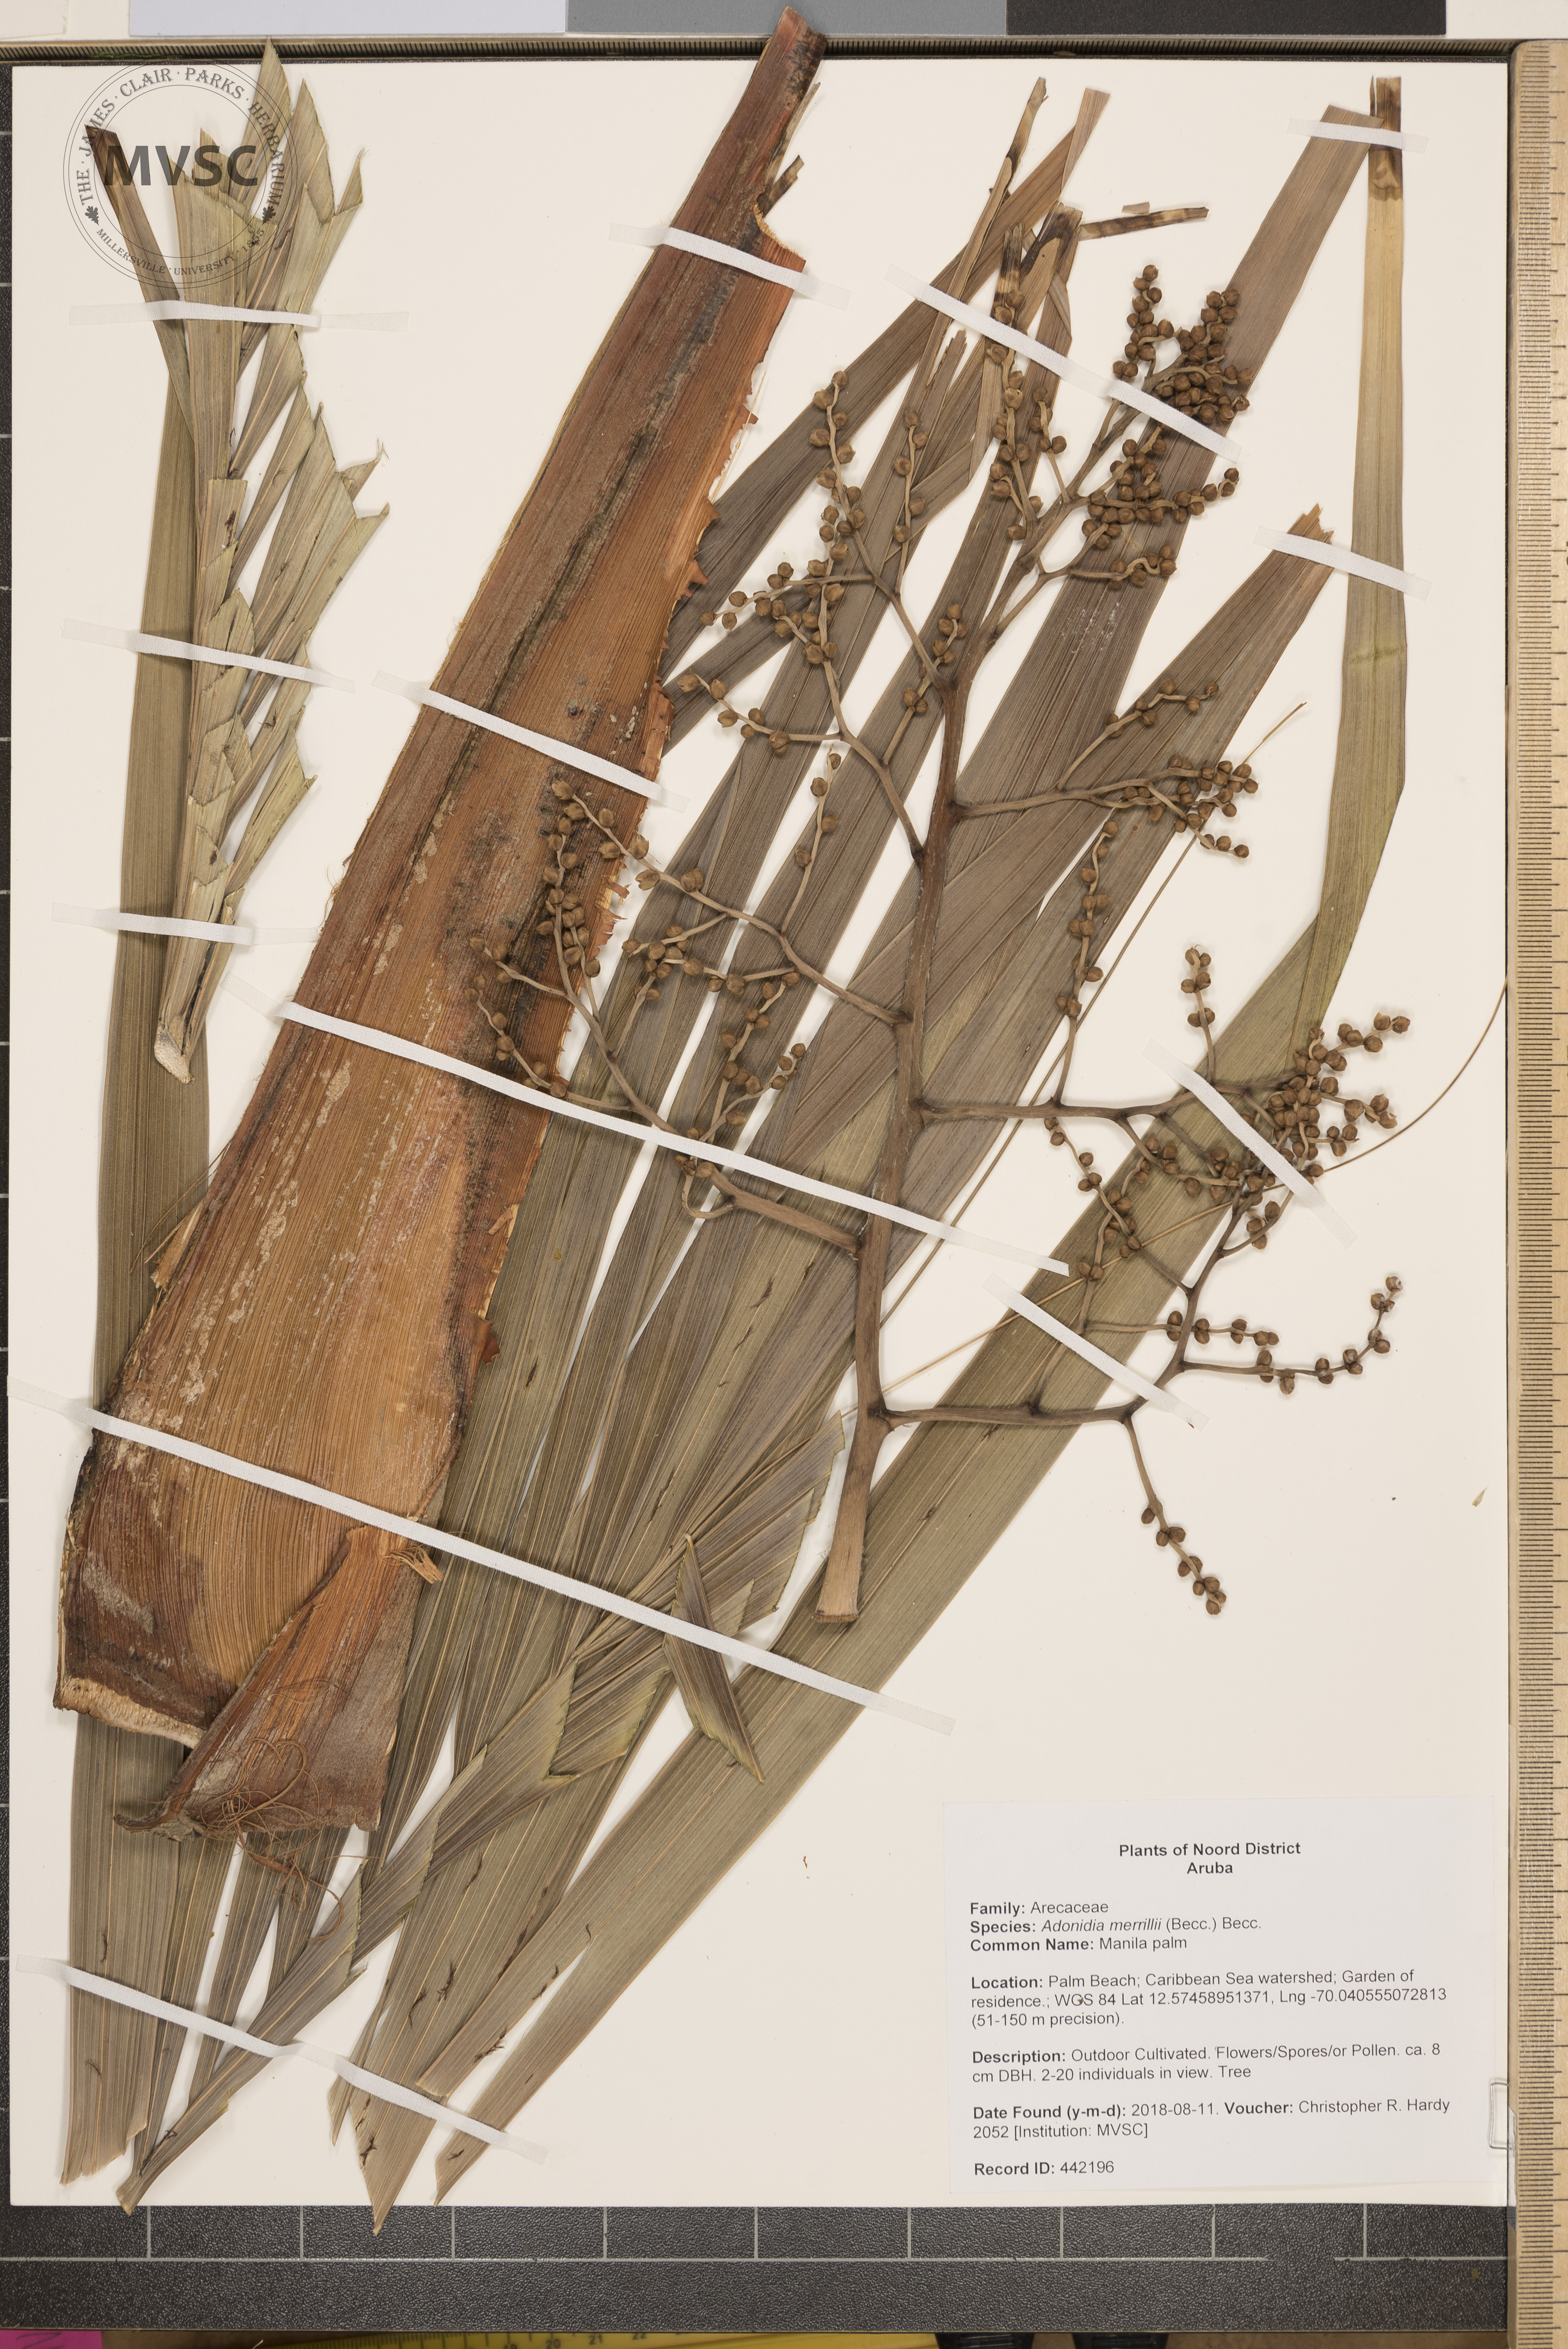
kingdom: Plantae
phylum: Tracheophyta
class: Liliopsida
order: Arecales
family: Arecaceae
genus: Adonidia
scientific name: Adonidia merrillii
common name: Manila palm
